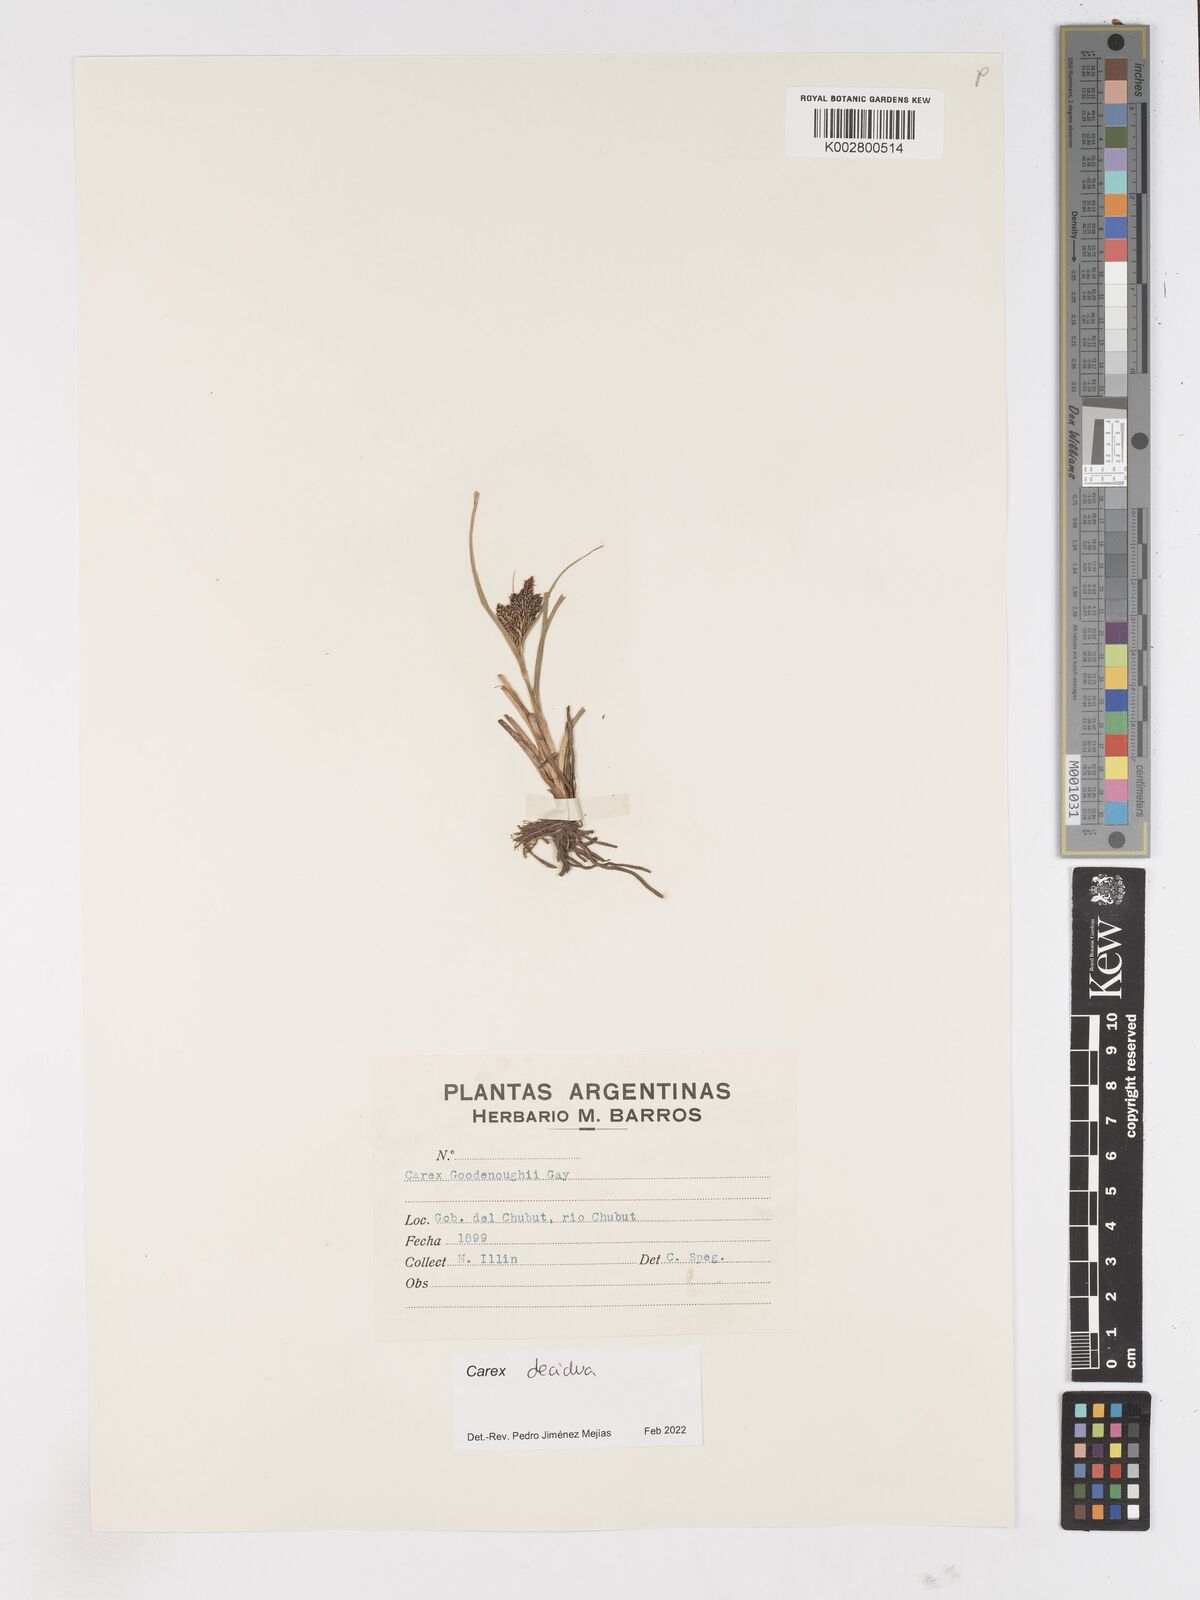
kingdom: Plantae
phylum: Tracheophyta
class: Liliopsida
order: Poales
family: Cyperaceae
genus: Carex
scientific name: Carex decidua
